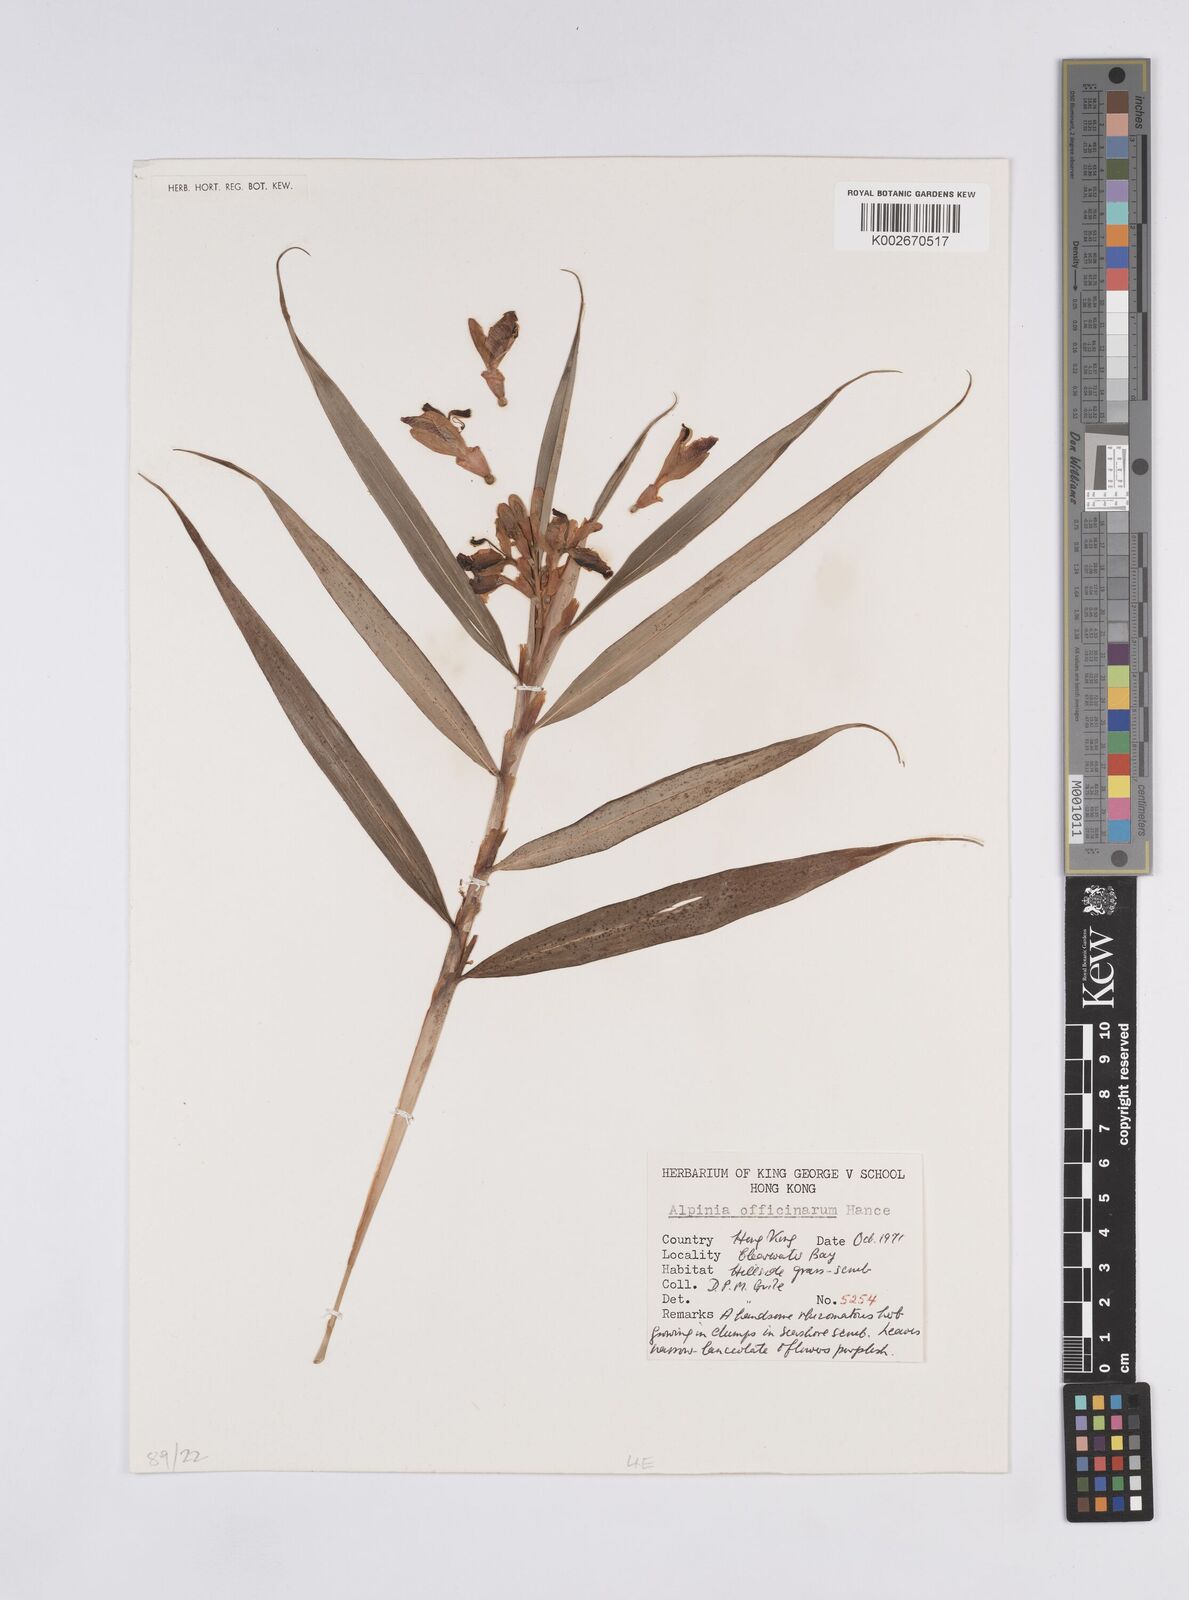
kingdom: Plantae
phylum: Tracheophyta
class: Liliopsida
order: Zingiberales
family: Zingiberaceae
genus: Alpinia
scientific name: Alpinia officinarum
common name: Chinese-ginger
